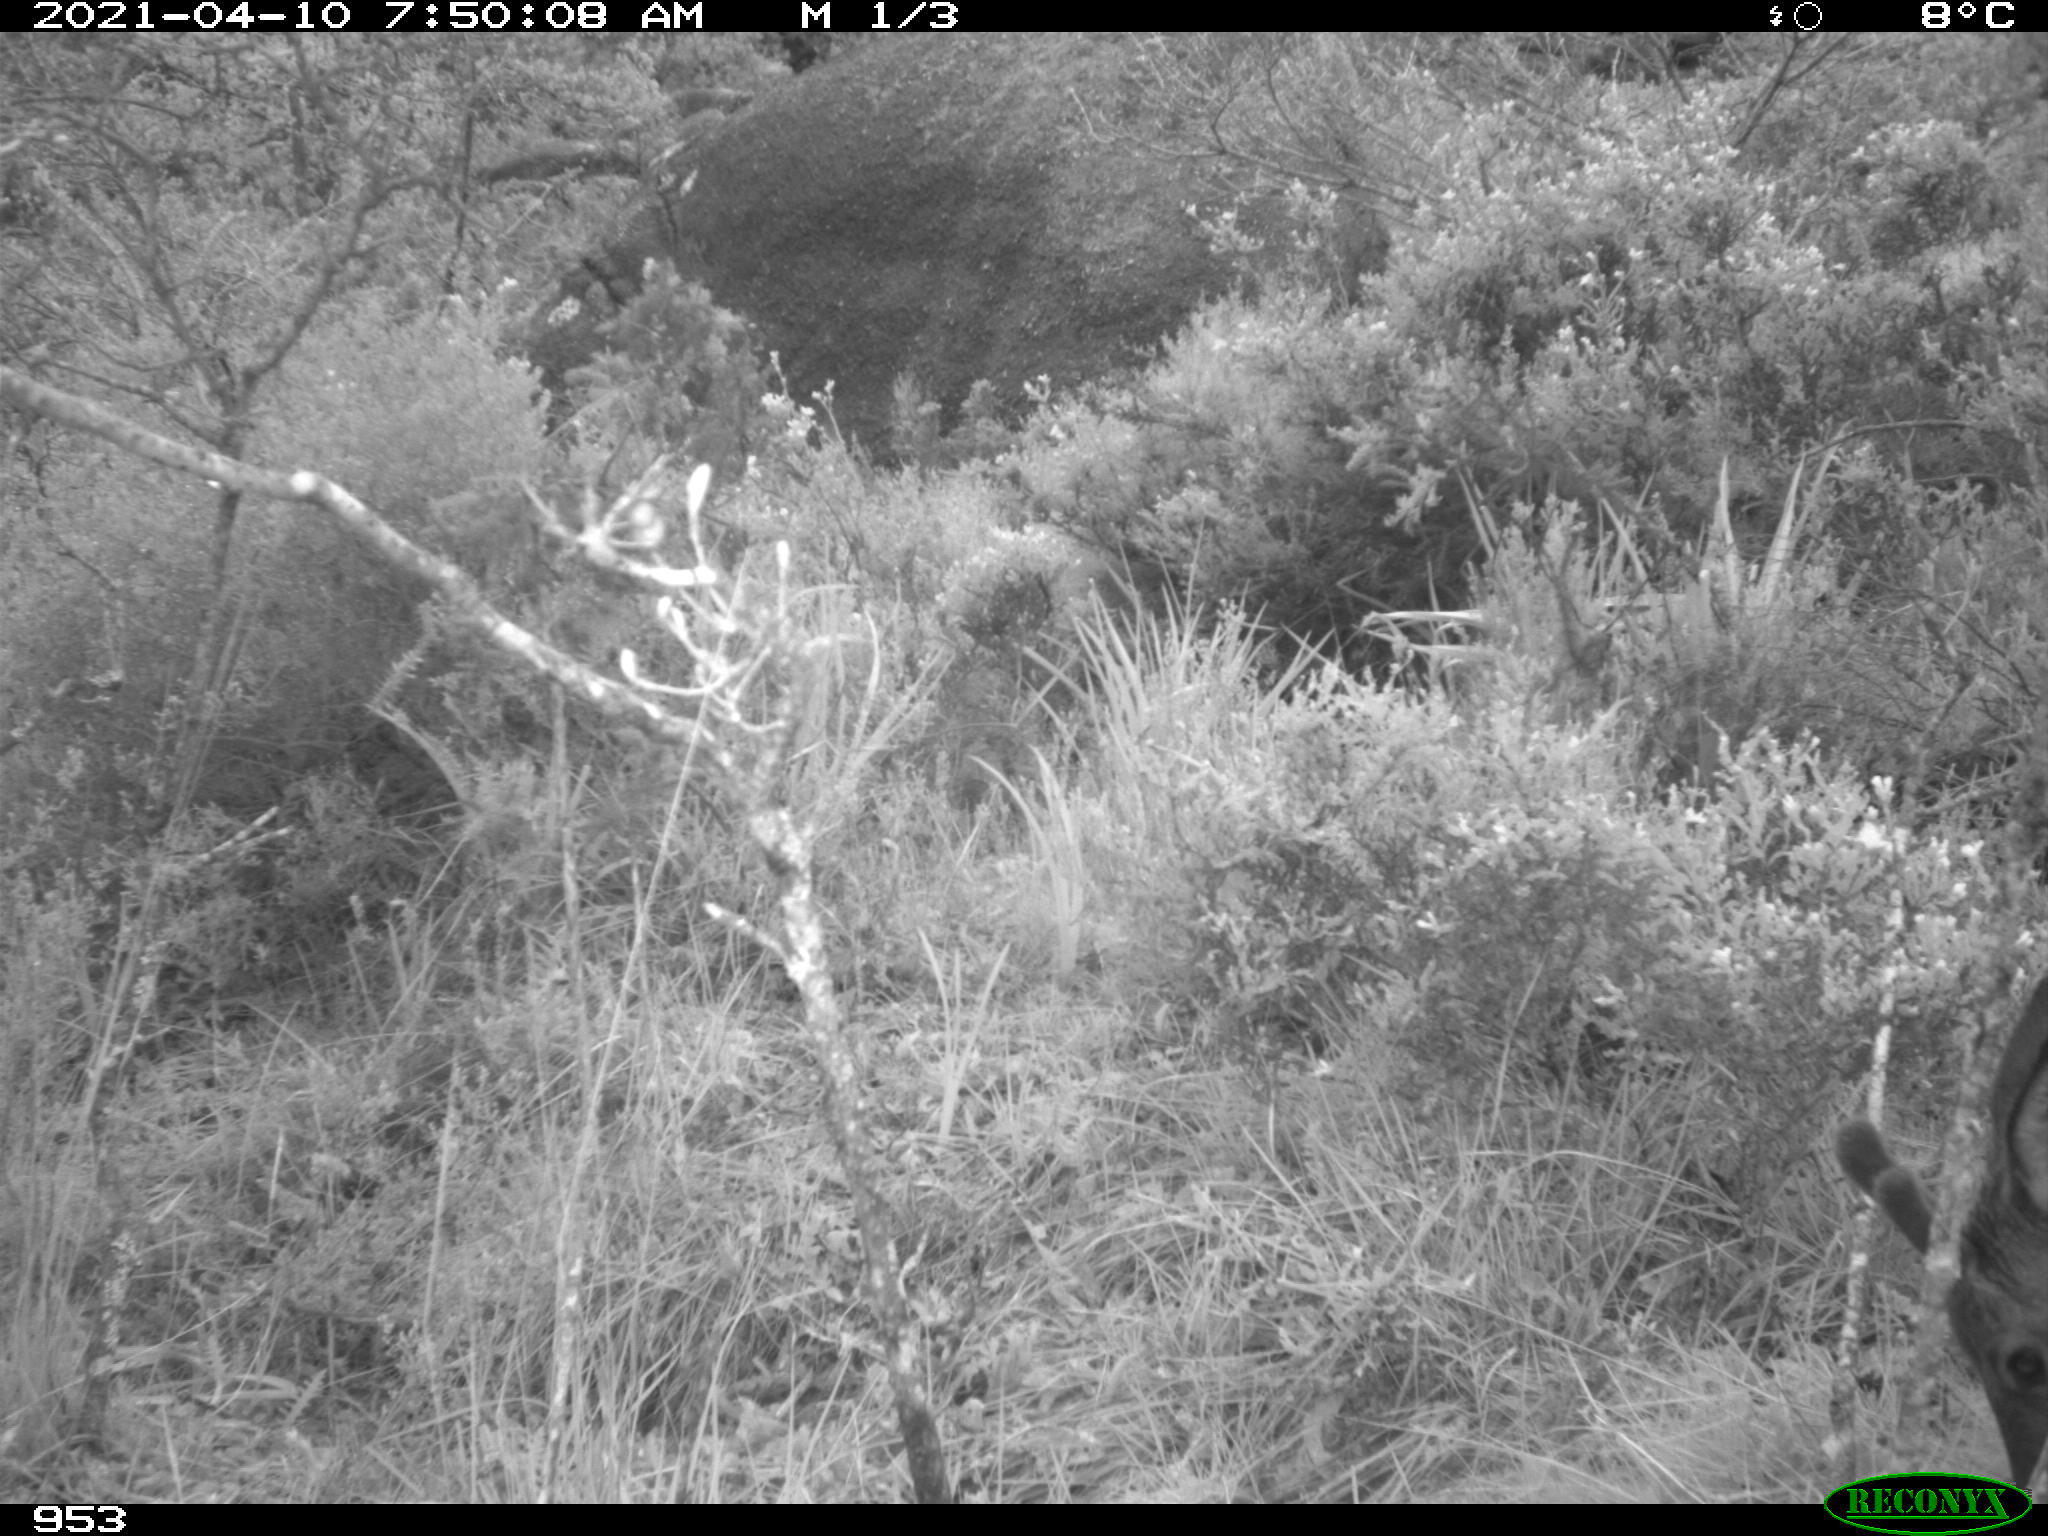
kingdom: Animalia
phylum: Chordata
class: Mammalia
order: Artiodactyla
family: Cervidae
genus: Capreolus
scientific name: Capreolus capreolus
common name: Western roe deer
